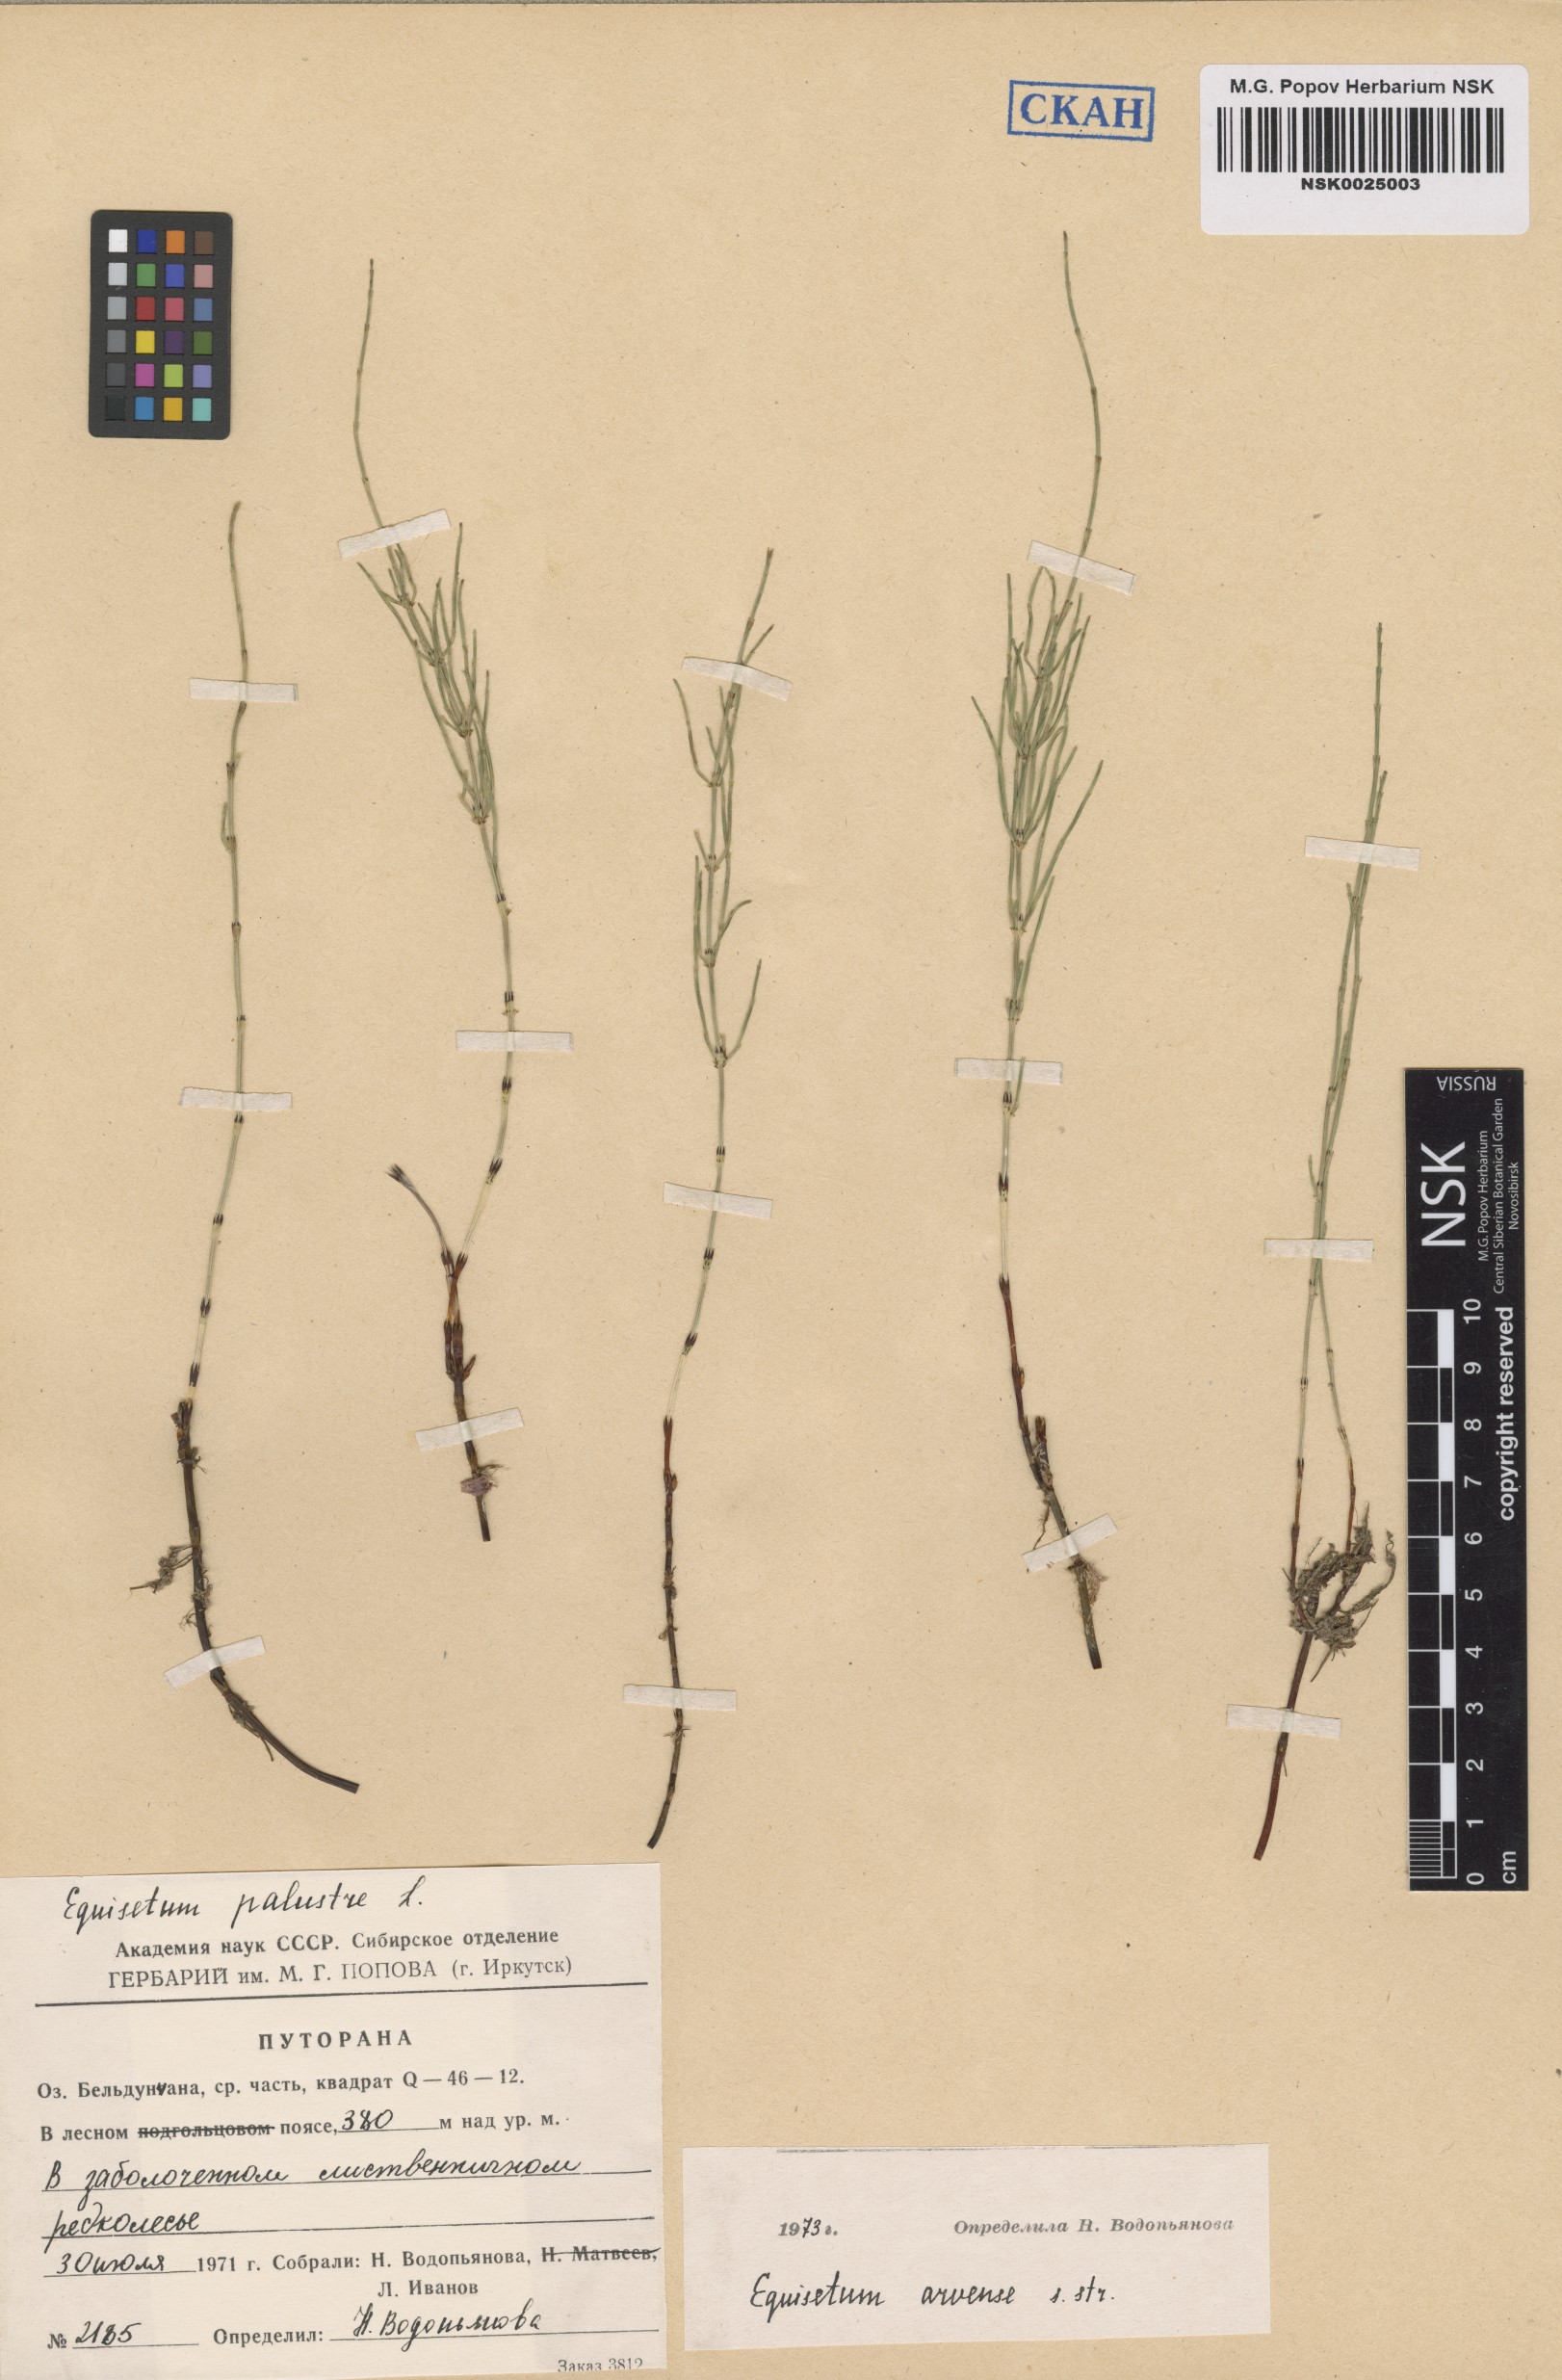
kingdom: Plantae
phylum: Tracheophyta
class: Polypodiopsida
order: Equisetales
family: Equisetaceae
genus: Equisetum
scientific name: Equisetum arvense
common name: Field horsetail
